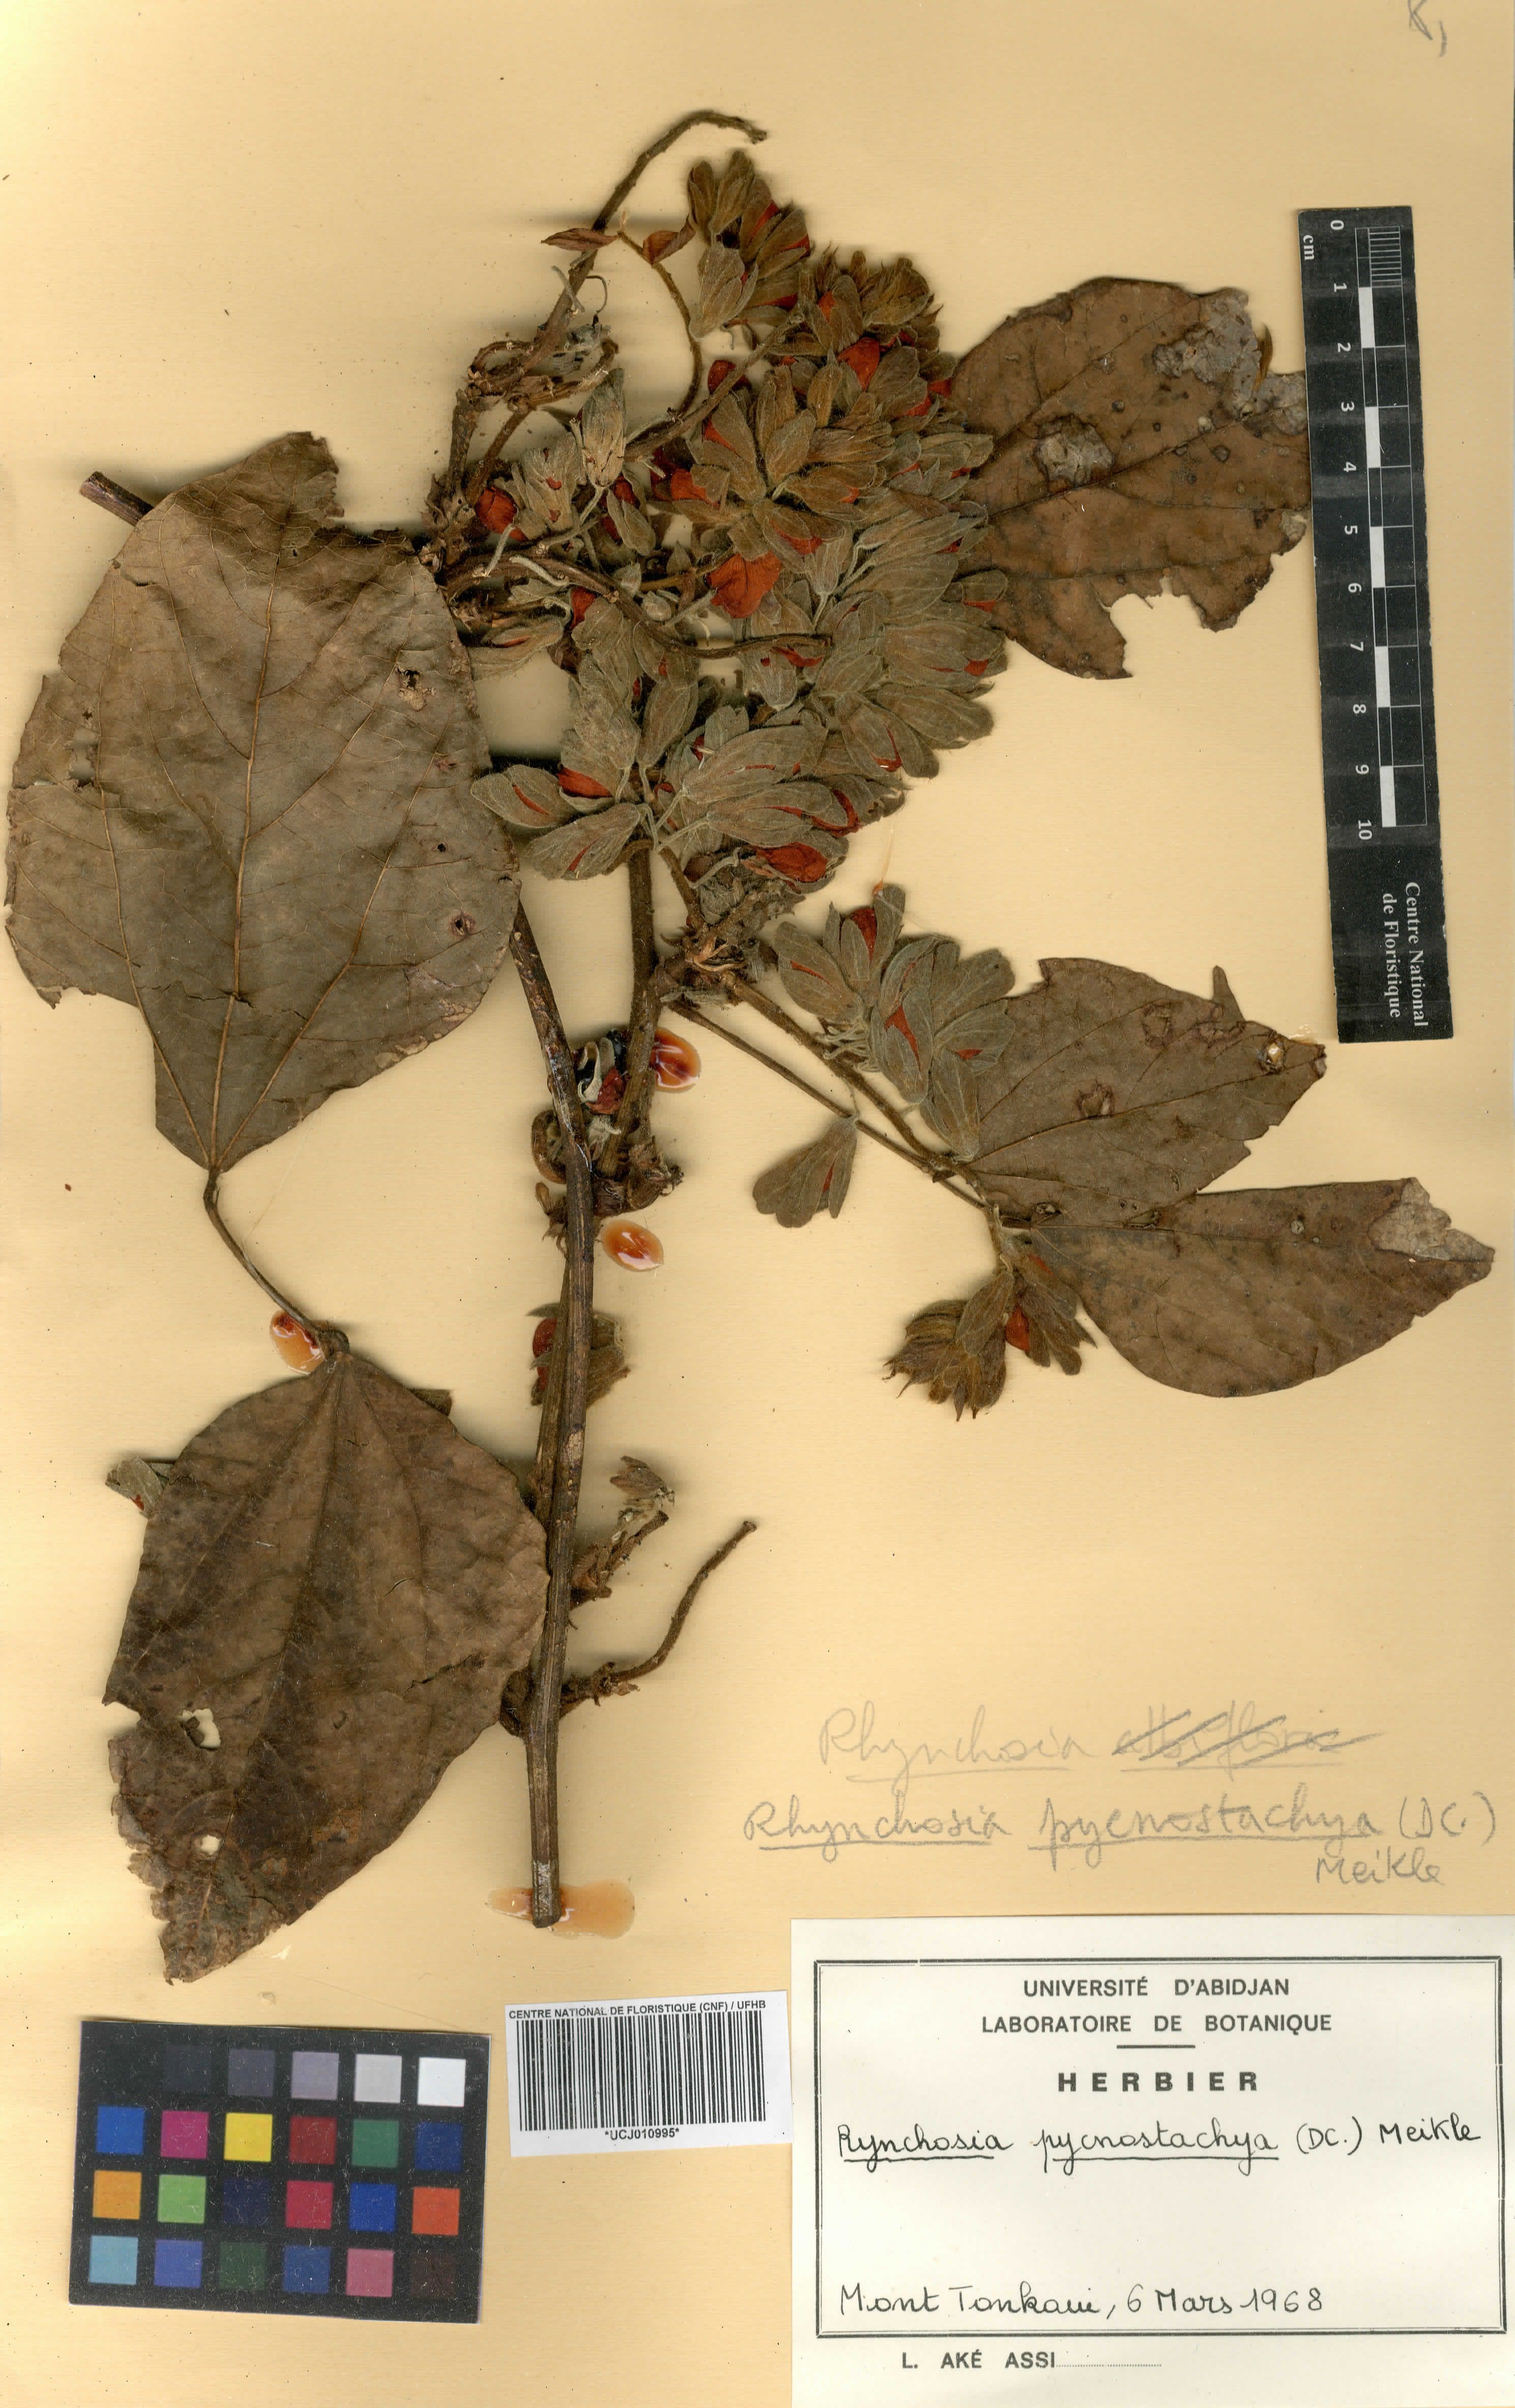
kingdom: Plantae
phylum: Tracheophyta
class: Magnoliopsida
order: Fabales
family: Fabaceae
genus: Rhynchosia
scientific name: Rhynchosia nyasica
